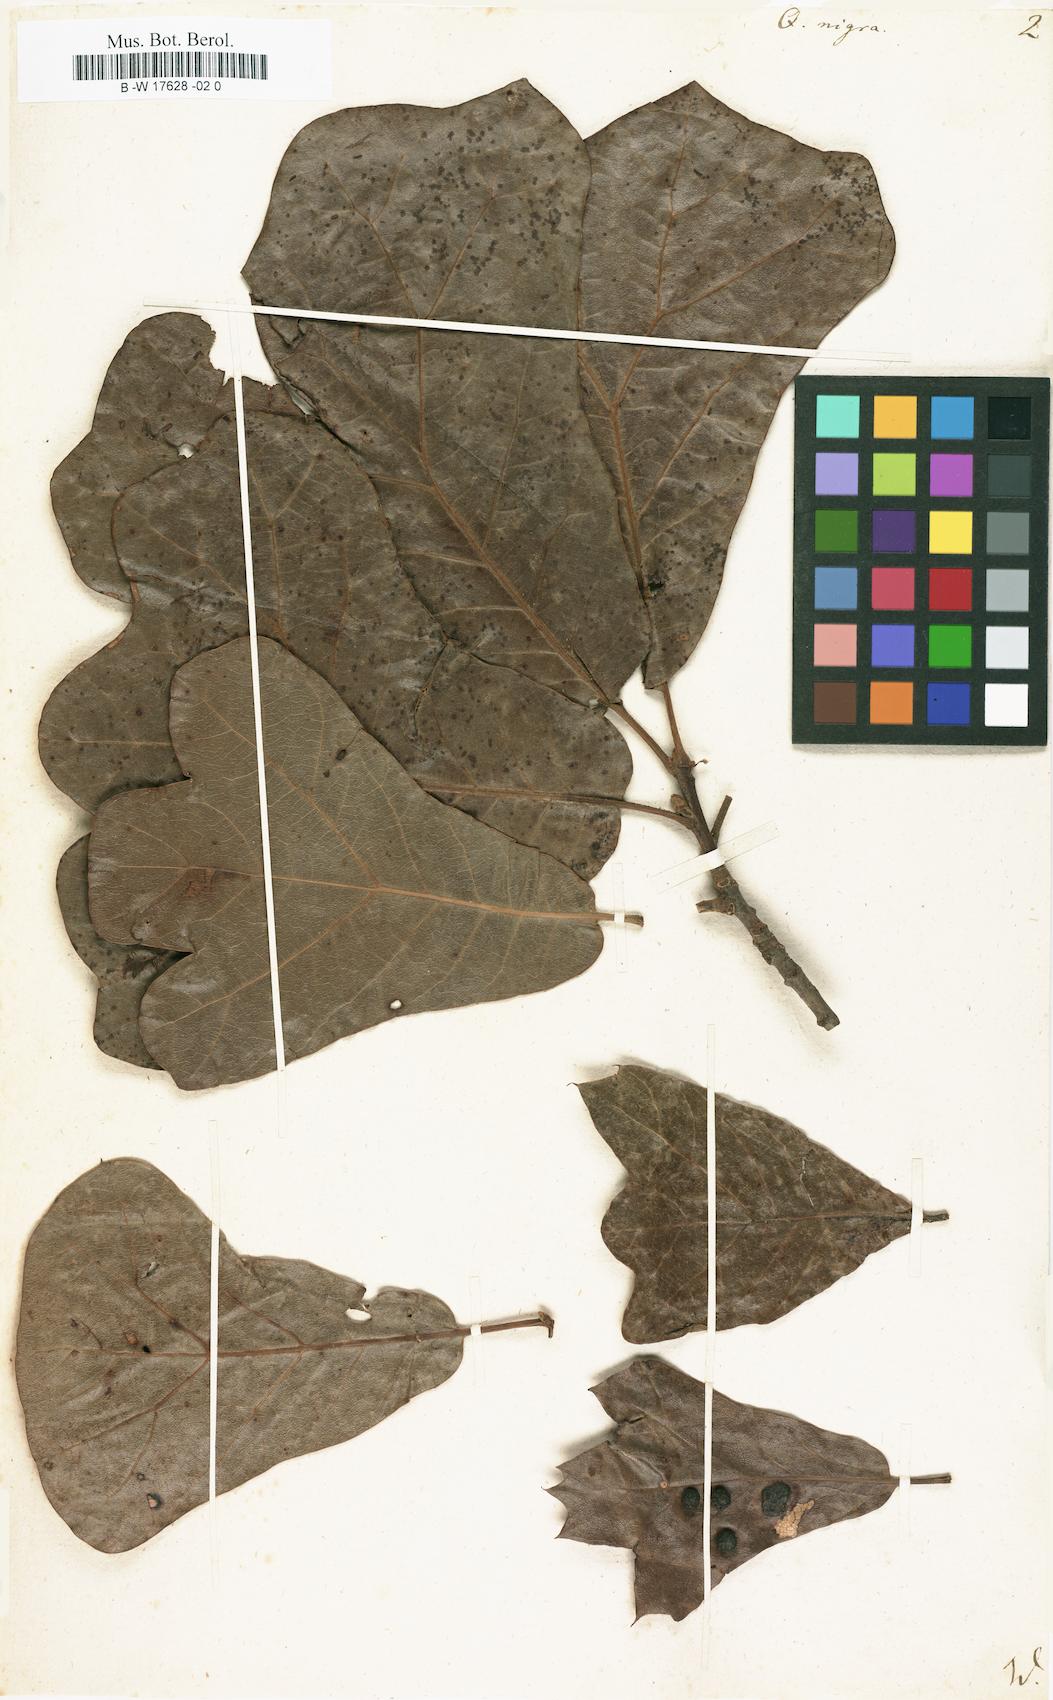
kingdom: Plantae
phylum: Tracheophyta
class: Magnoliopsida
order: Fagales
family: Fagaceae
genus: Quercus
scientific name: Quercus nigra
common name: Water oak
